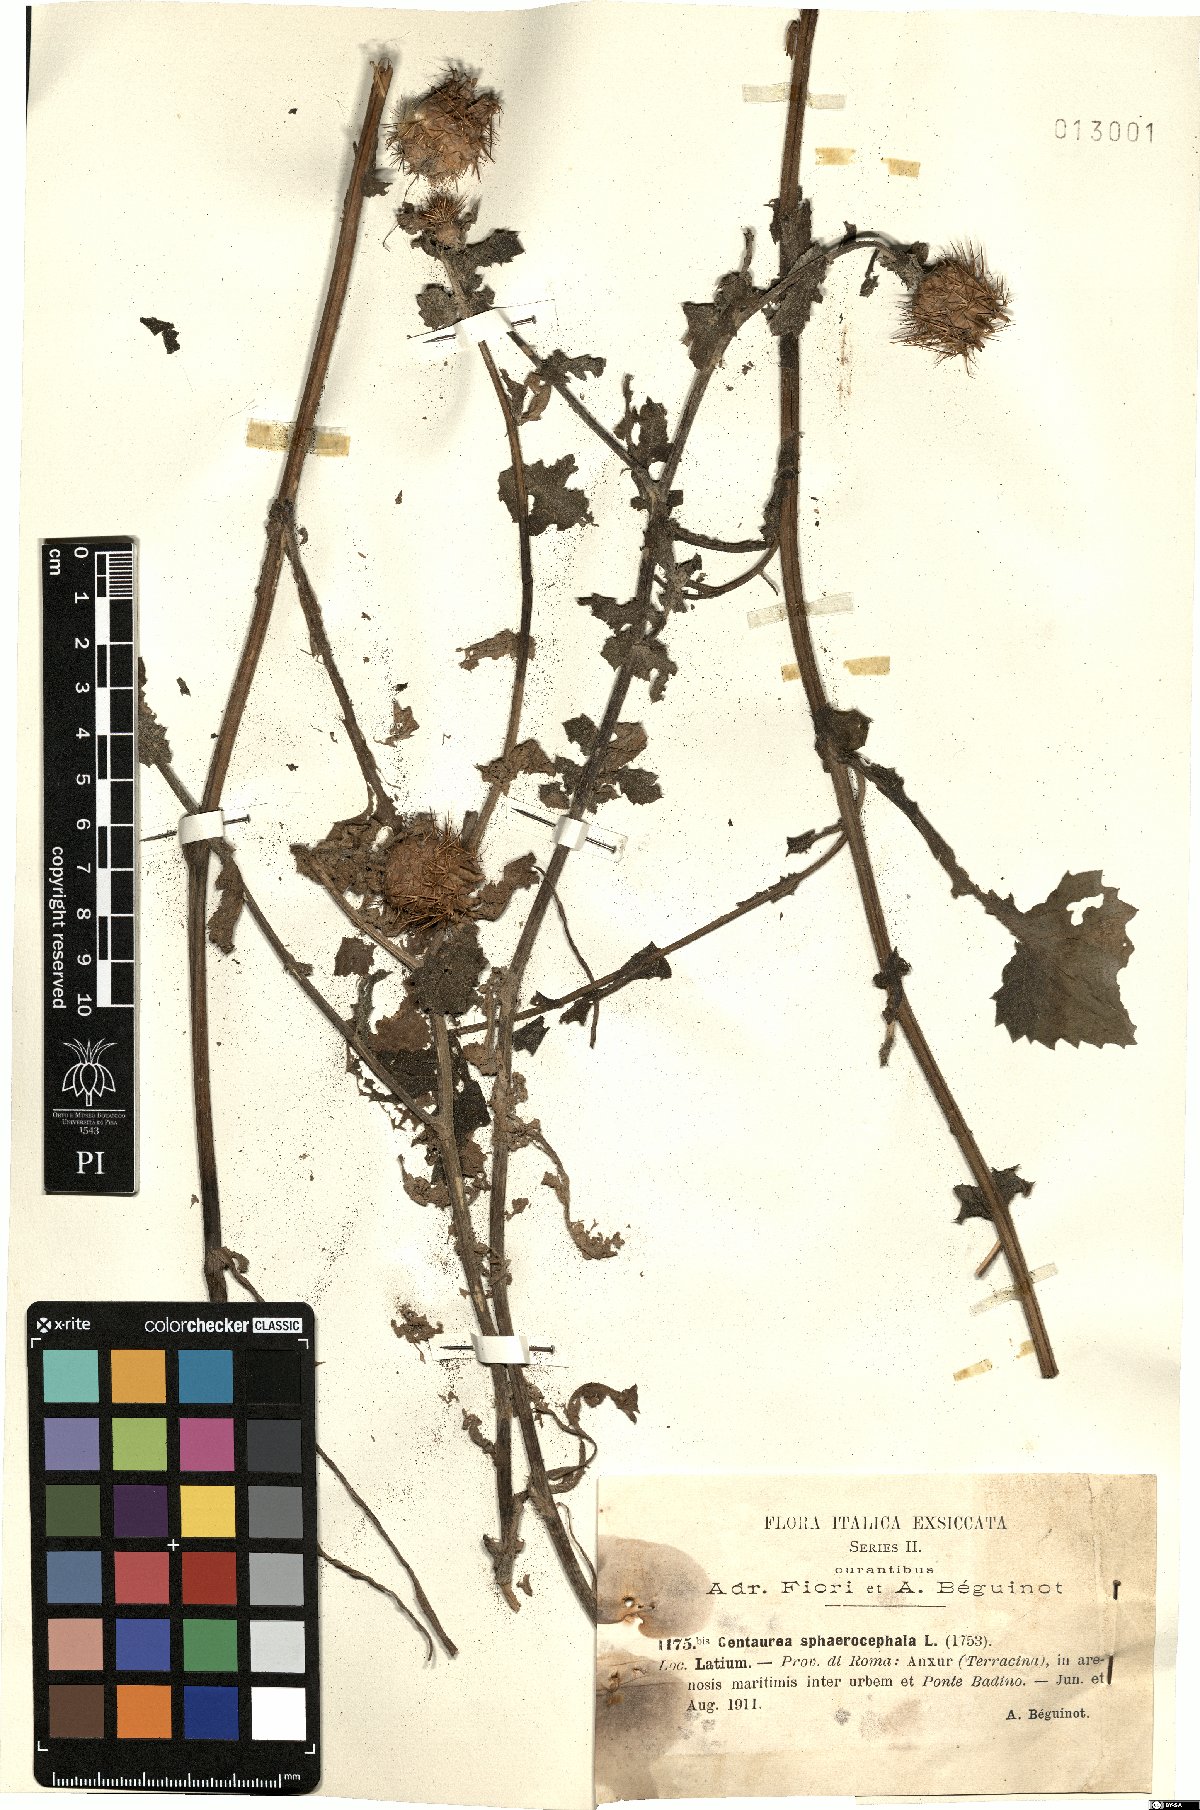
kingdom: Plantae
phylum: Tracheophyta
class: Magnoliopsida
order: Asterales
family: Asteraceae
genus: Centaurea
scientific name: Centaurea sphaerocephala
